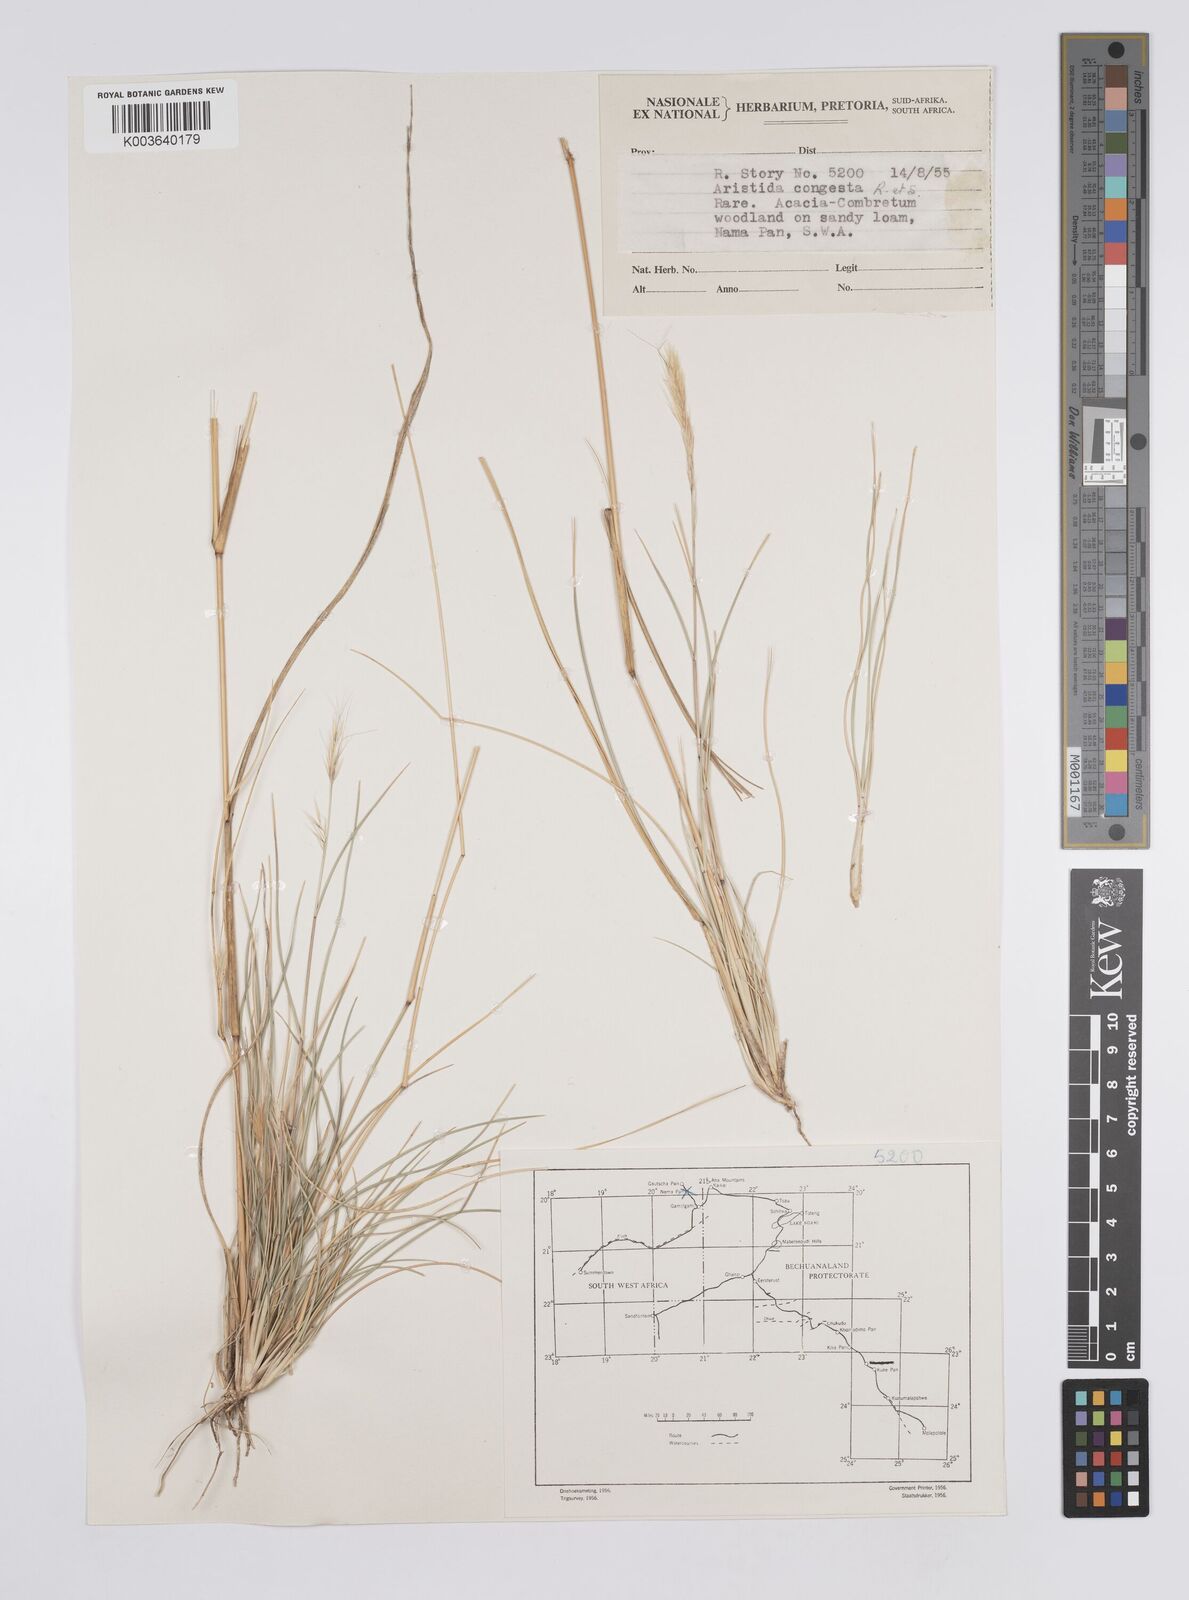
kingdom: Plantae
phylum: Tracheophyta
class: Liliopsida
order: Poales
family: Poaceae
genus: Aristida
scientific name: Aristida congesta
